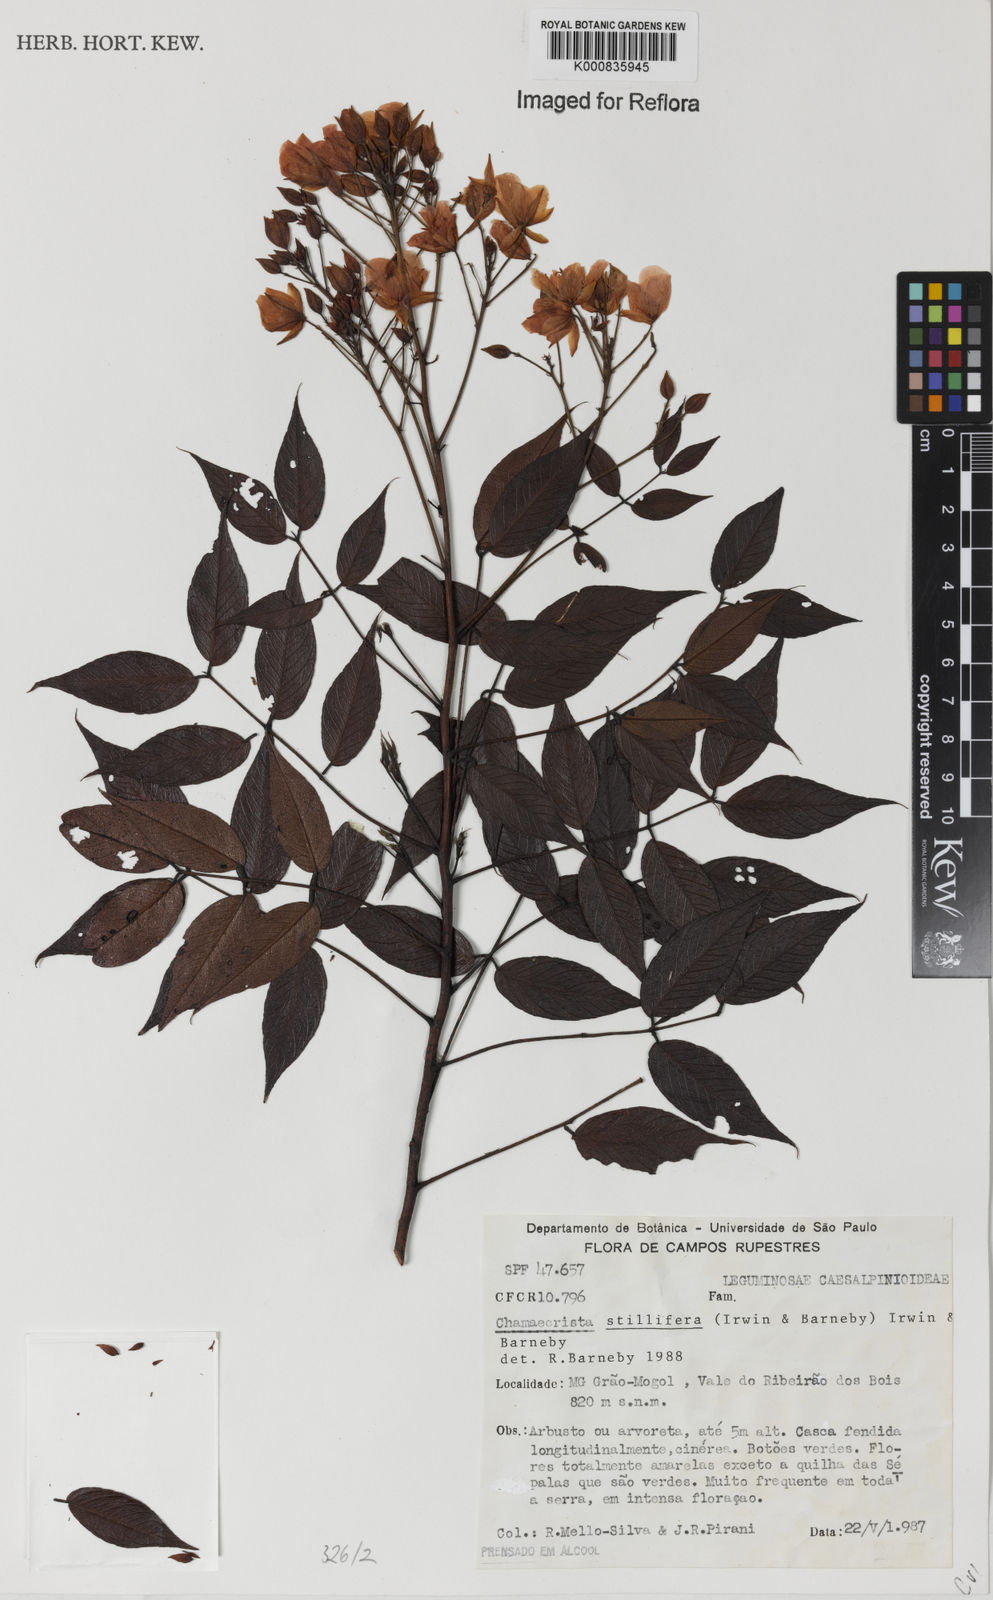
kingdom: Plantae
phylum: Tracheophyta
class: Magnoliopsida
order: Fabales
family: Fabaceae
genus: Chamaecrista
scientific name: Chamaecrista stillifera
